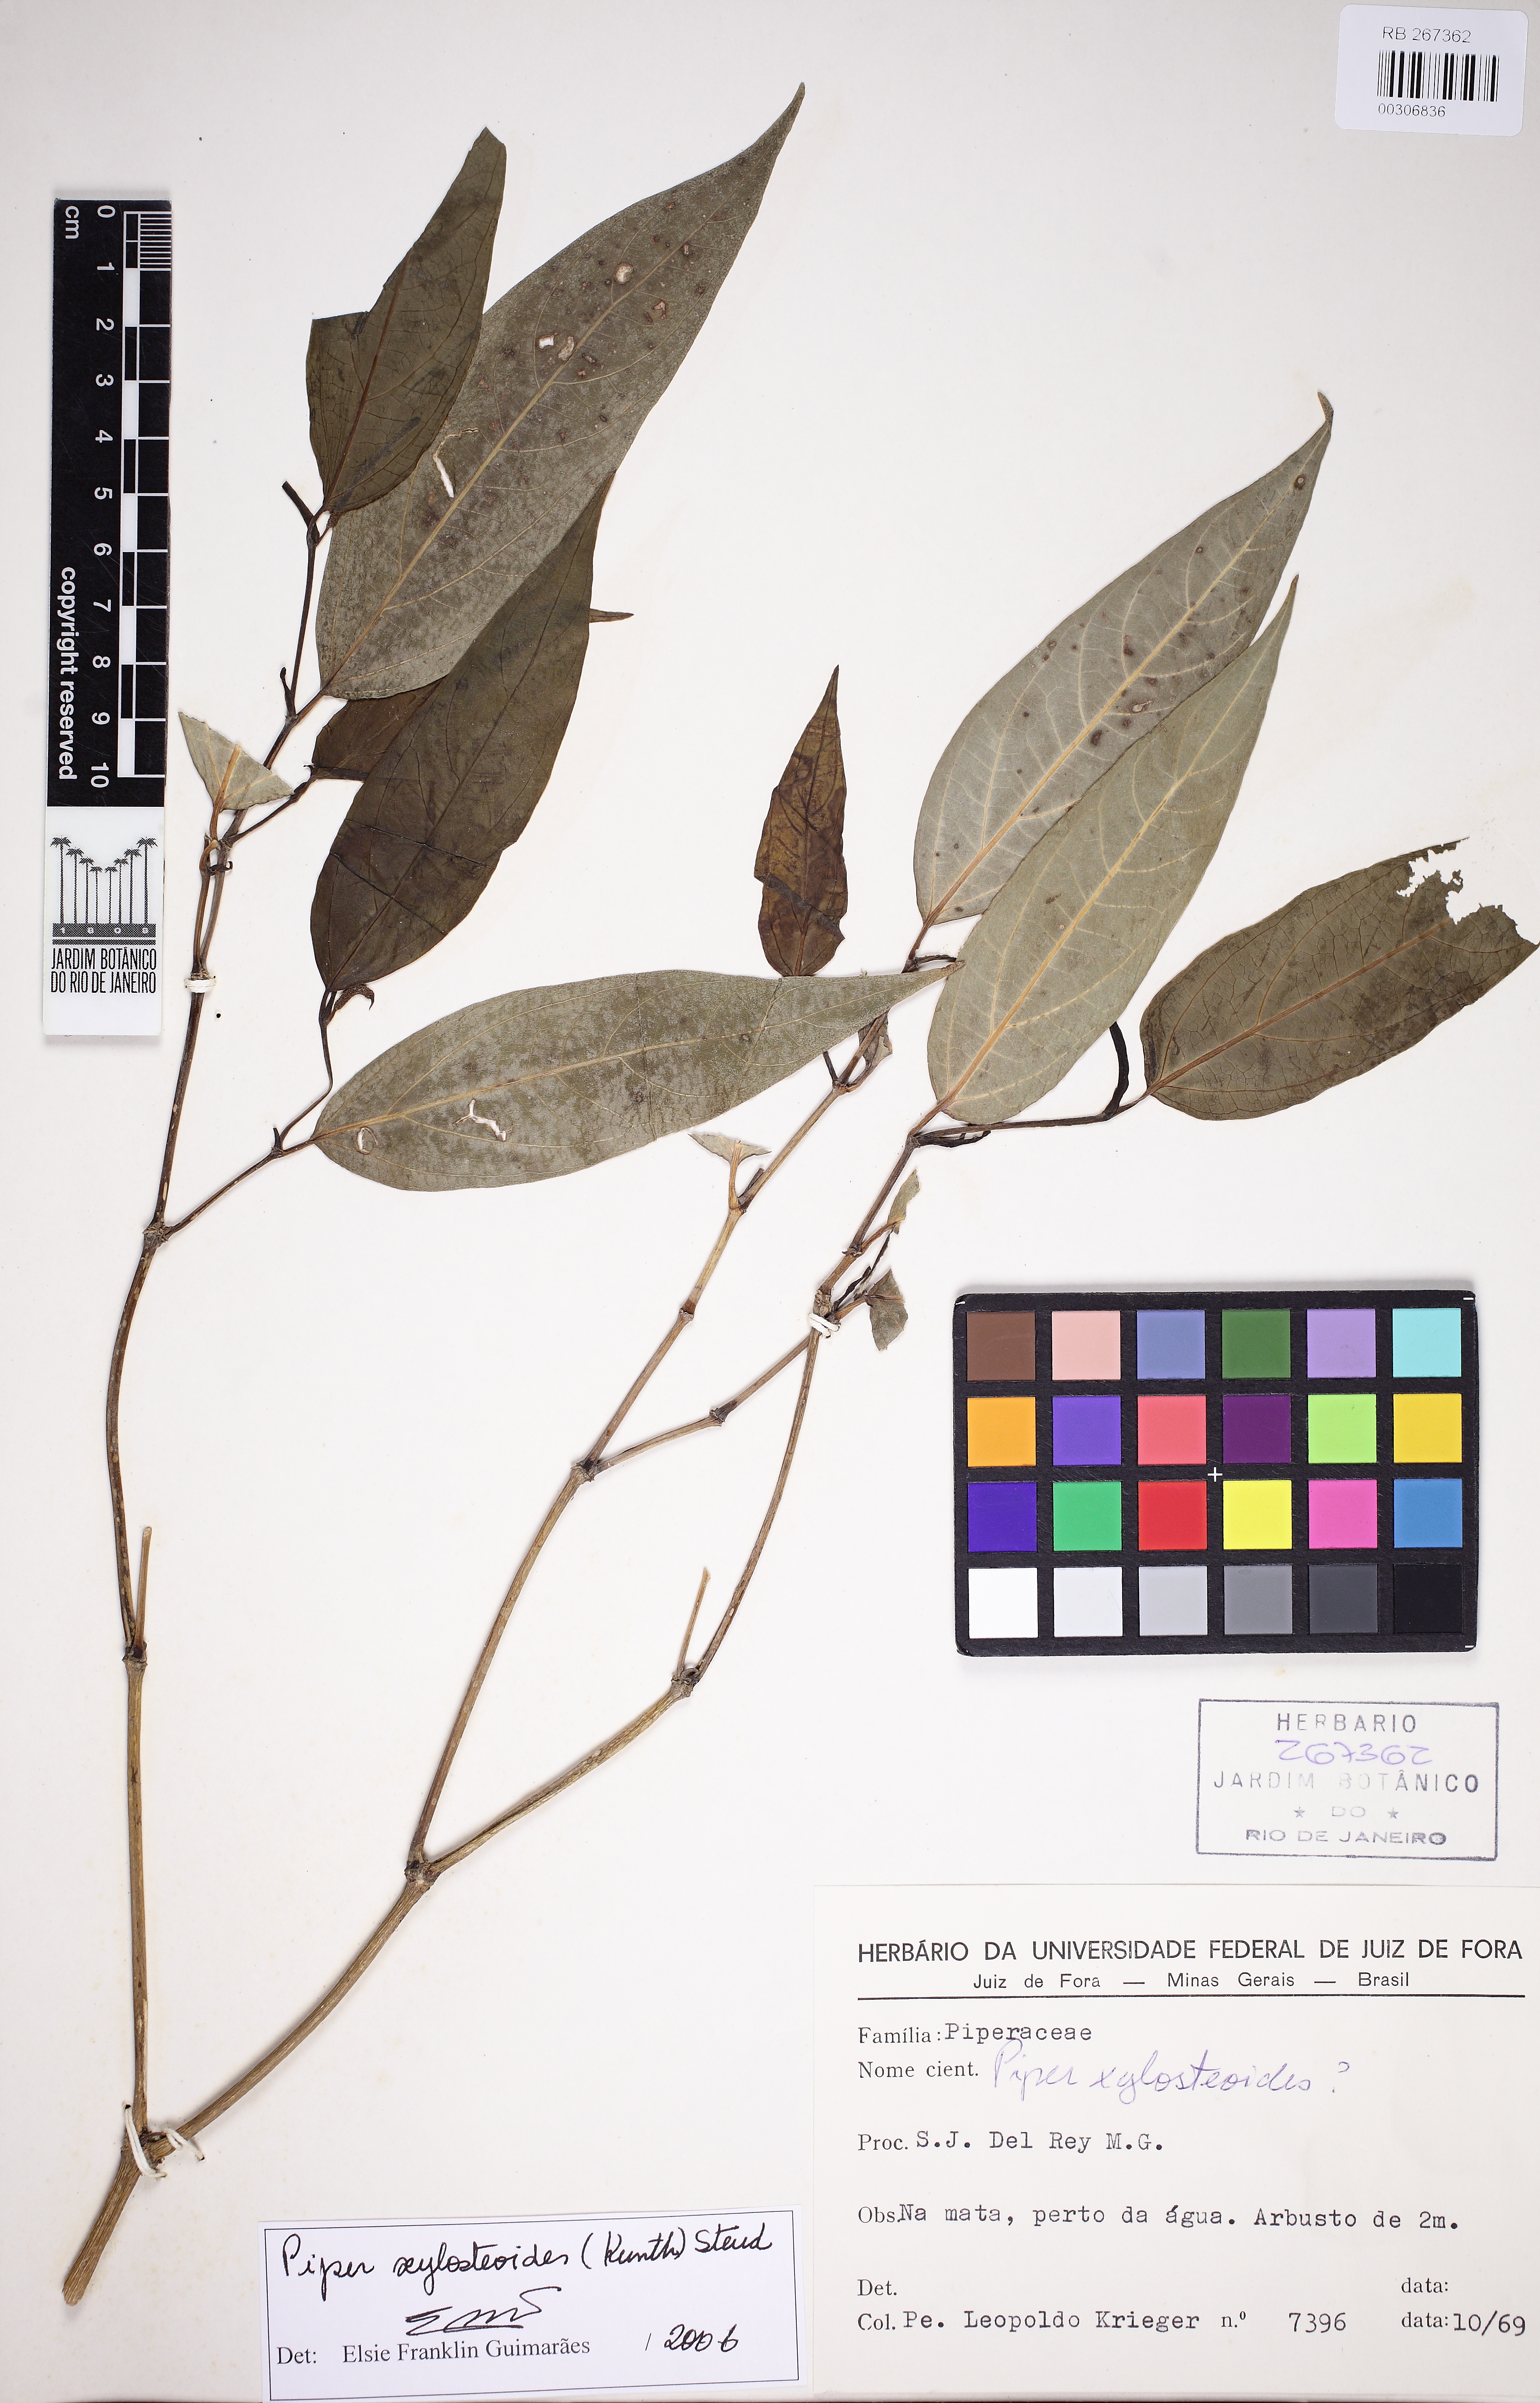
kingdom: Plantae
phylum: Tracheophyta
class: Magnoliopsida
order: Piperales
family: Piperaceae
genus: Piper
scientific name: Piper xylosteoides
